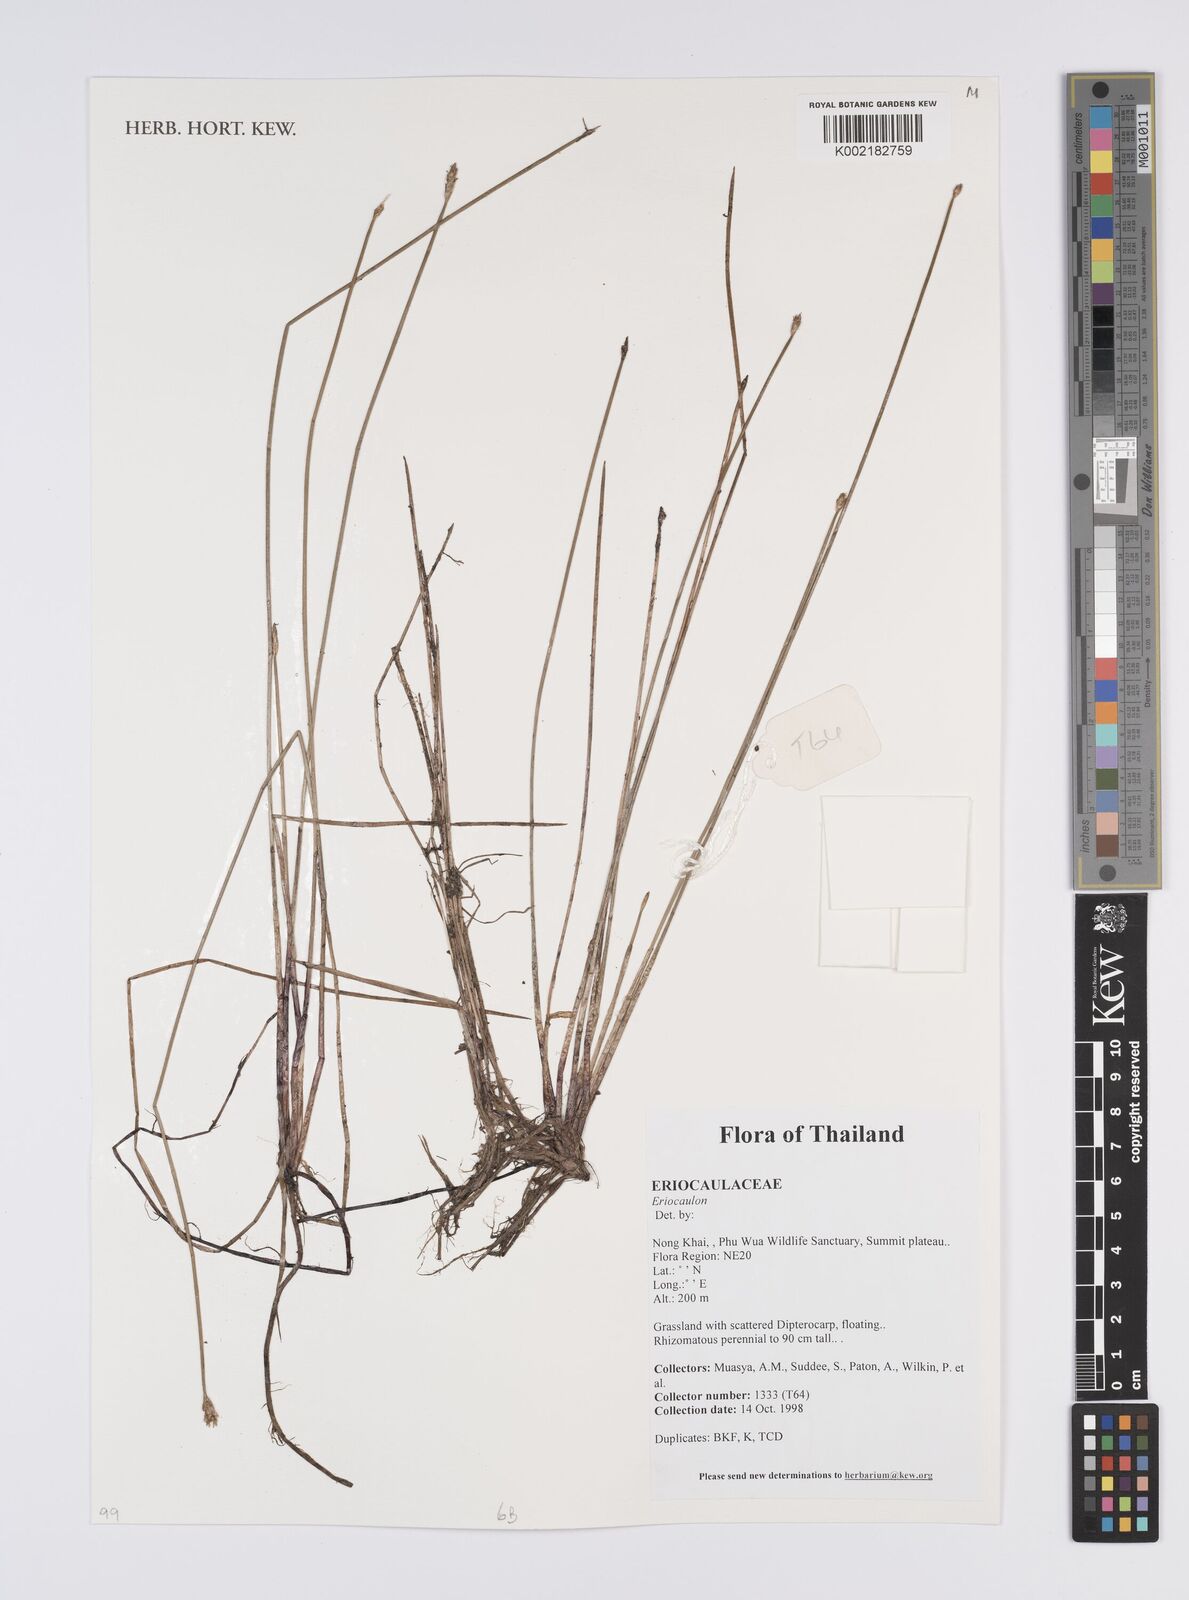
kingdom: Plantae
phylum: Tracheophyta
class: Liliopsida
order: Poales
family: Eriocaulaceae
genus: Eriocaulon
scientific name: Eriocaulon
